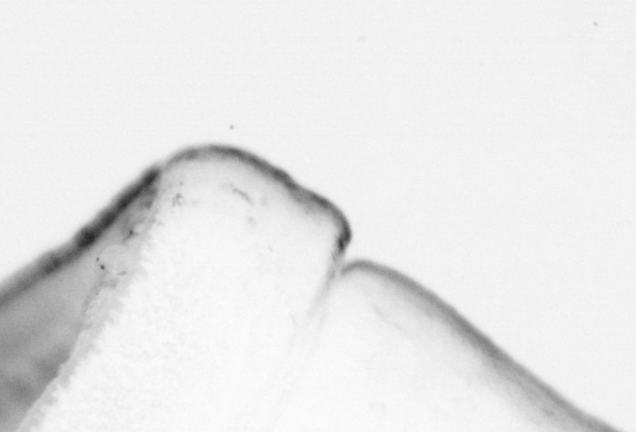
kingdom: Animalia
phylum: Chordata
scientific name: Chordata
